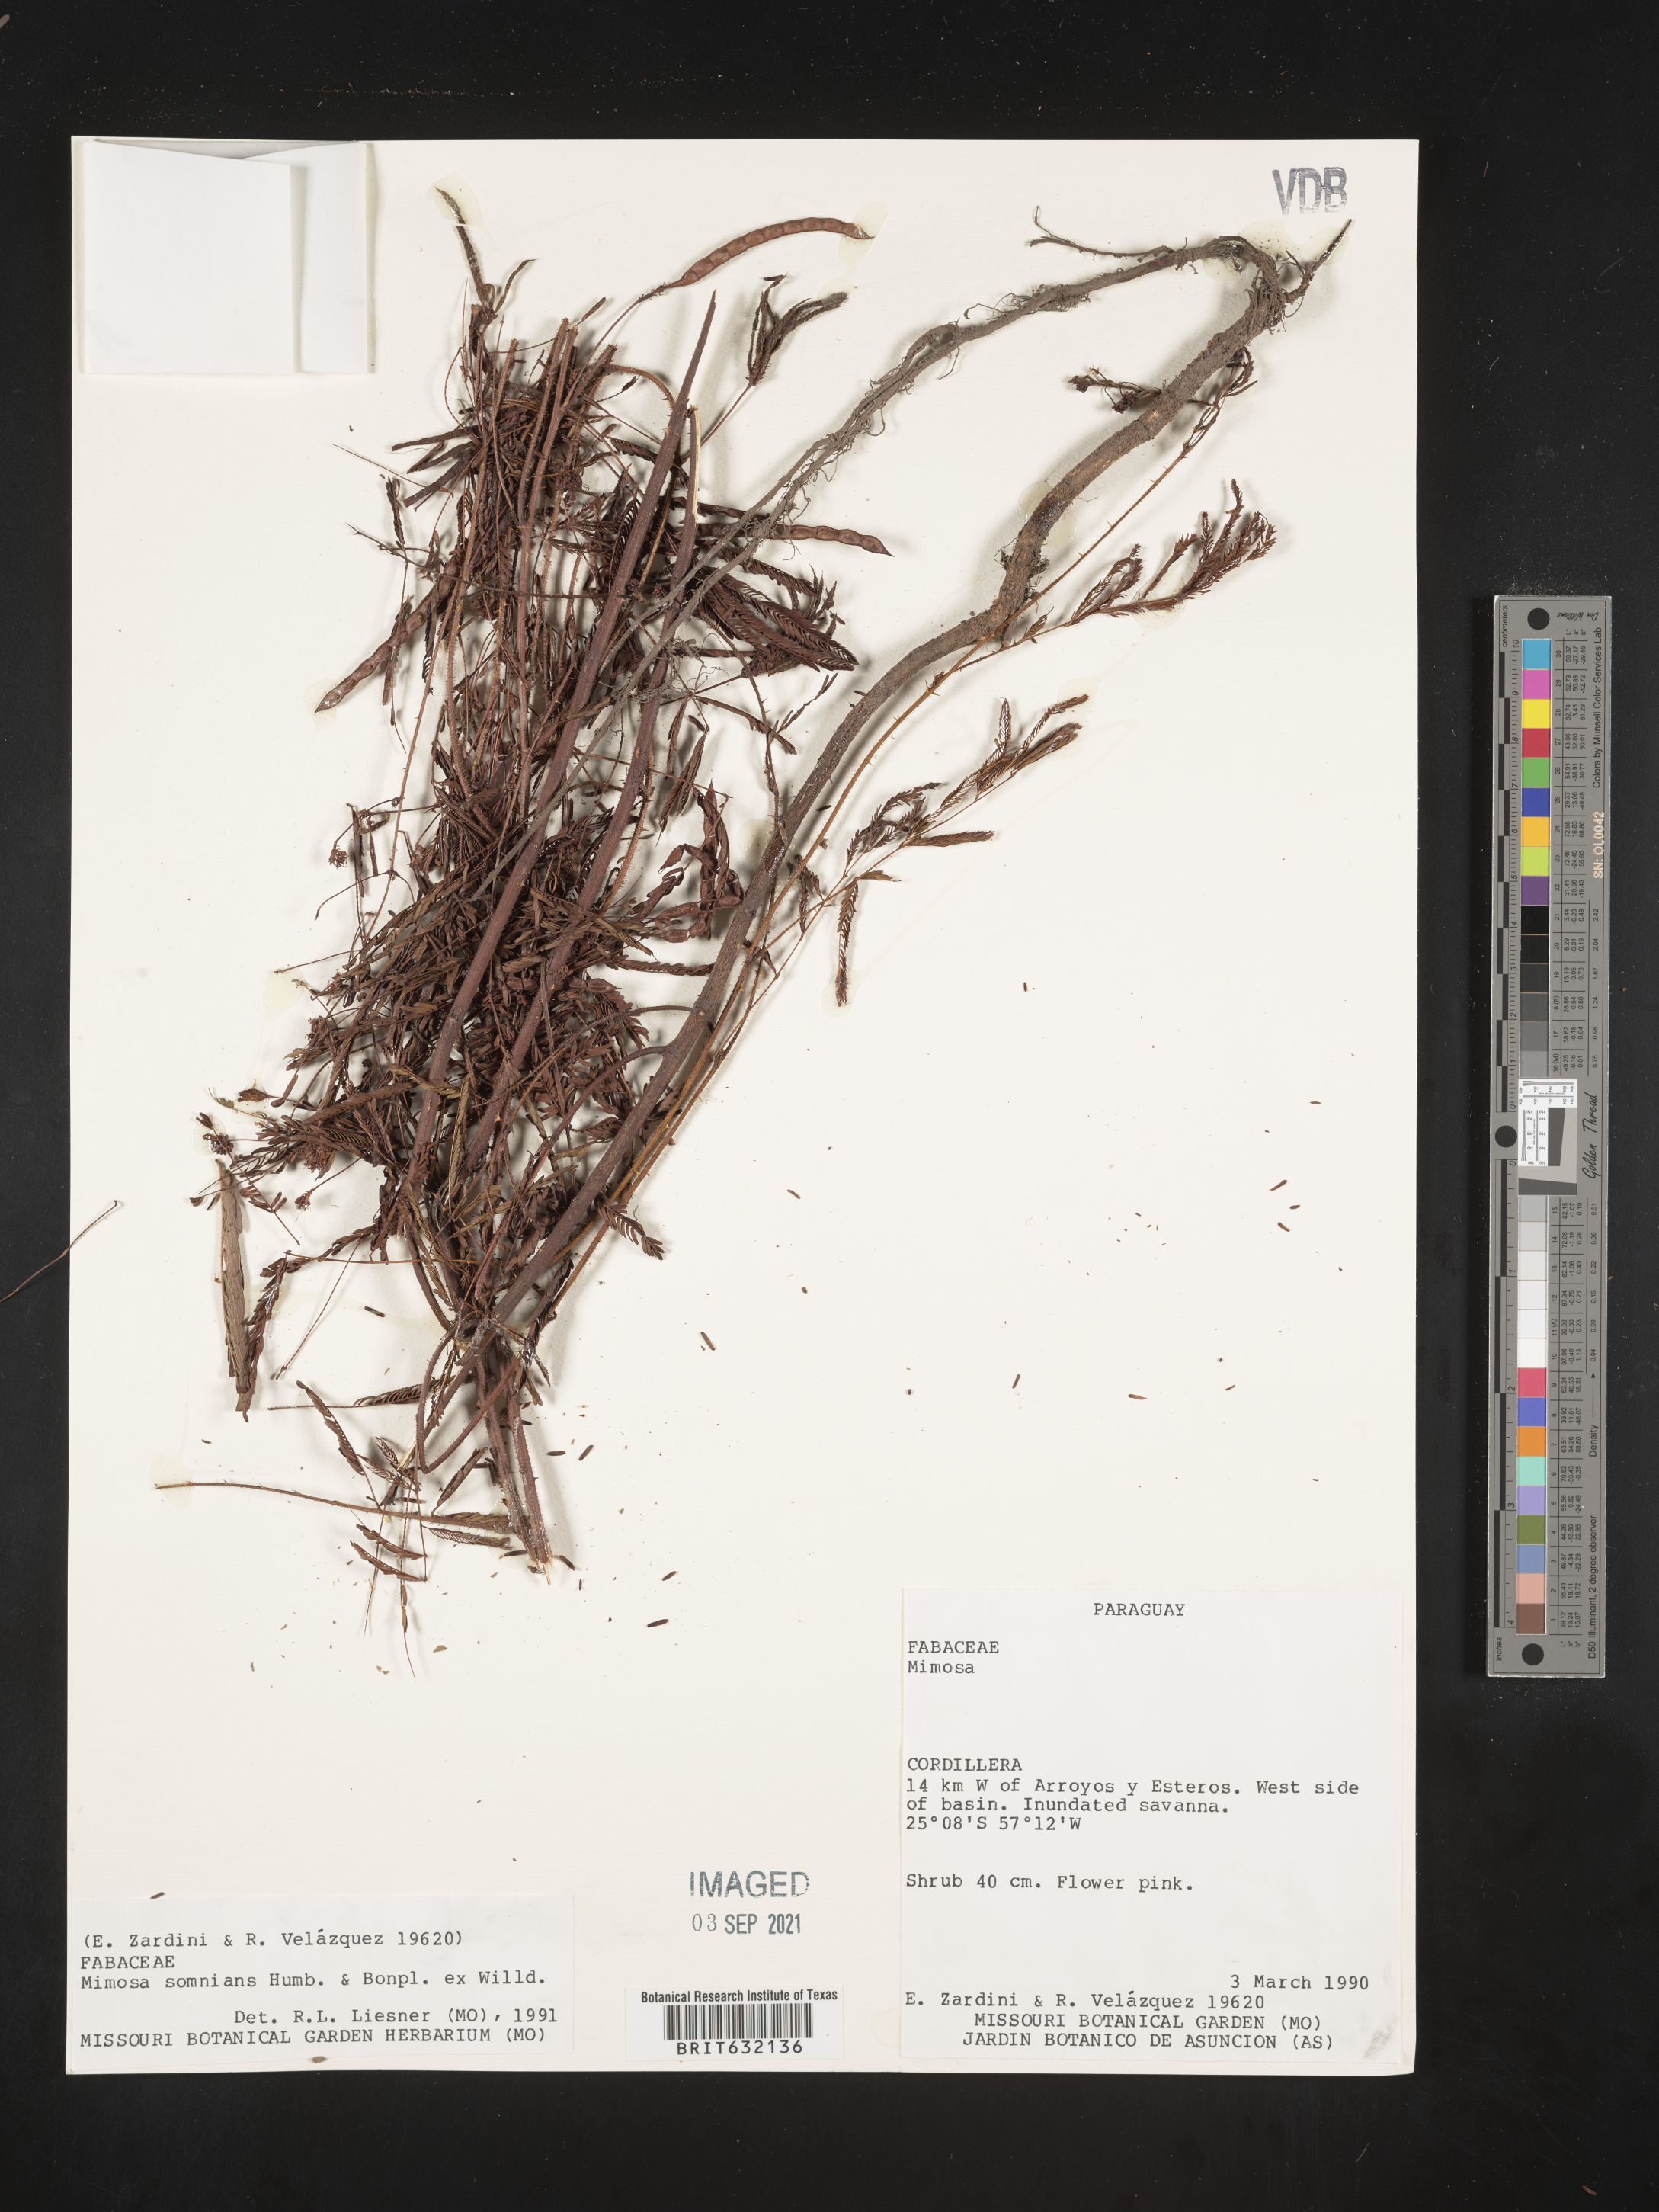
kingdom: Plantae
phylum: Tracheophyta
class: Magnoliopsida
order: Fabales
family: Fabaceae
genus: Mimosa
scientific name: Mimosa
